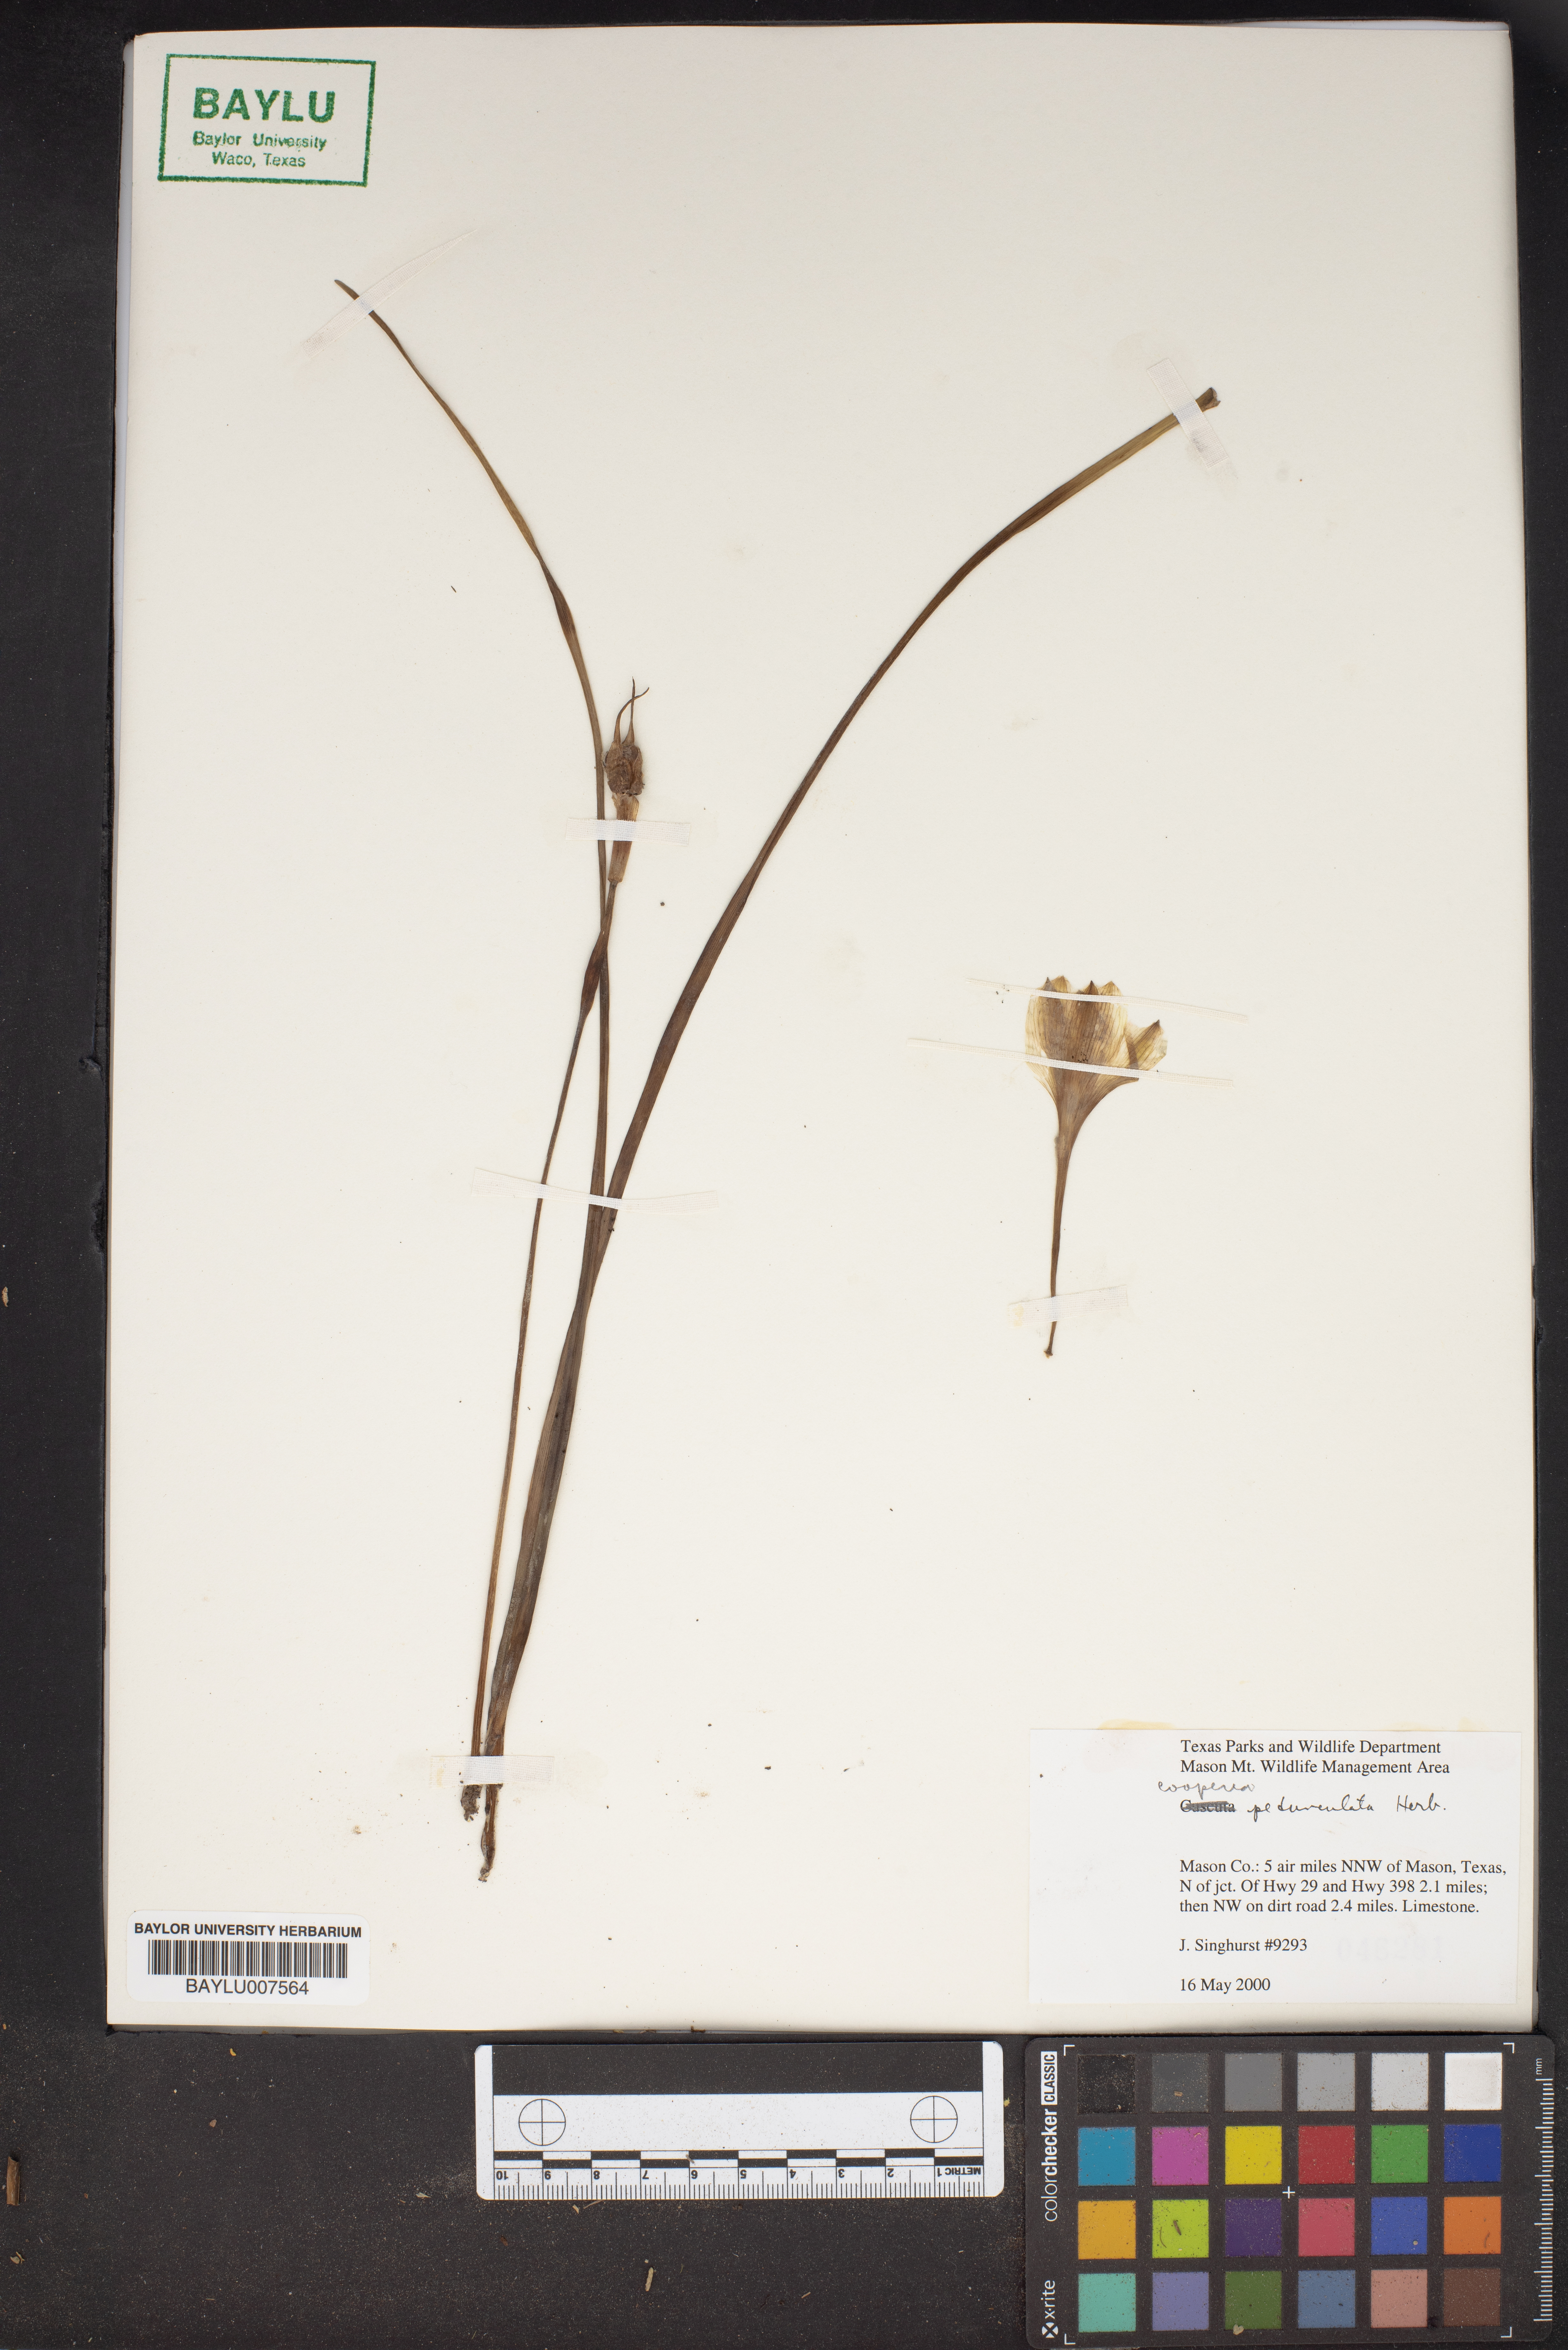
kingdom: Plantae
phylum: Tracheophyta
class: Liliopsida
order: Asparagales
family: Amaryllidaceae
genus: Zephyranthes
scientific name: Zephyranthes drummondii
